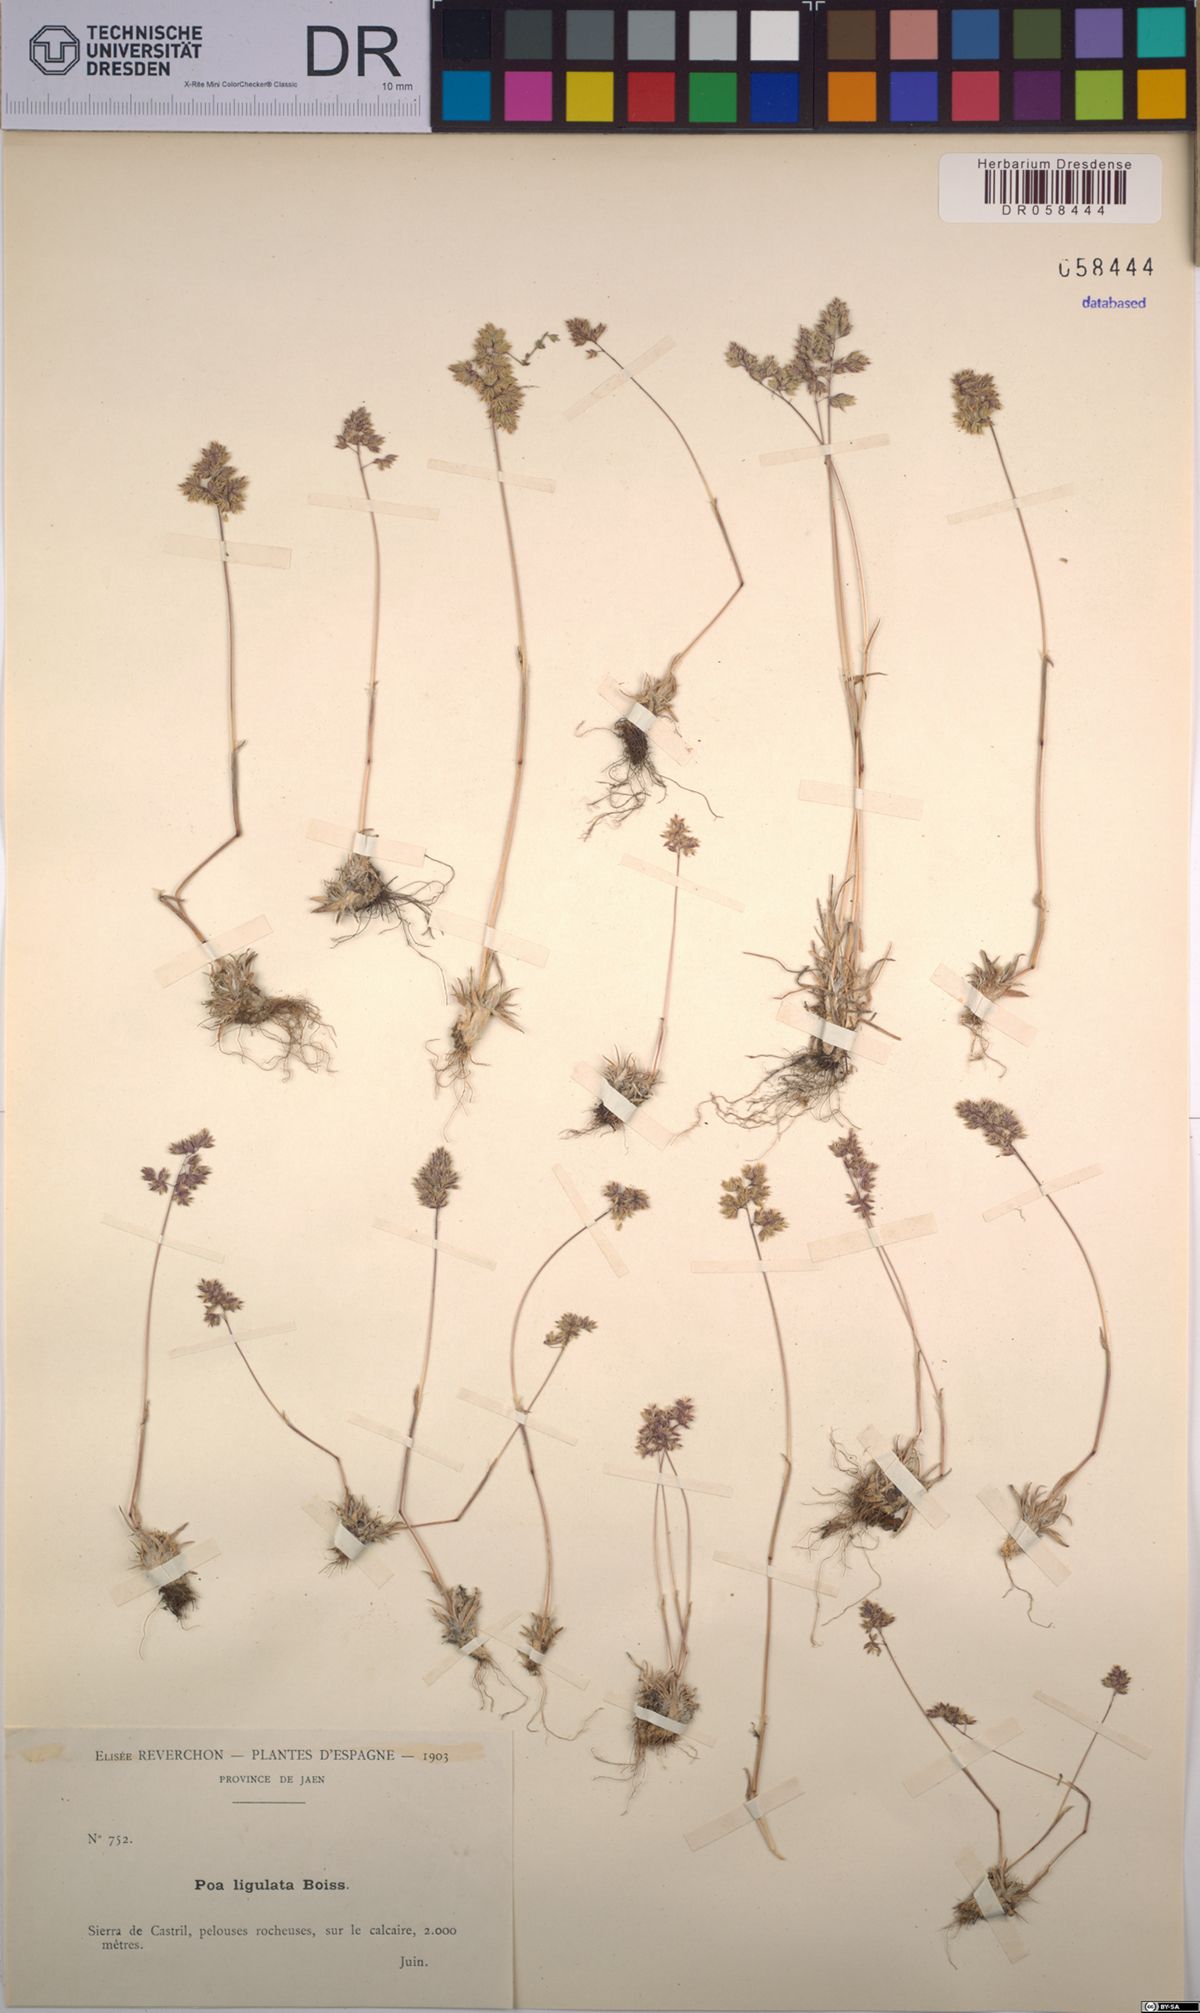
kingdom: Plantae
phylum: Tracheophyta
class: Liliopsida
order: Poales
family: Poaceae
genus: Poa
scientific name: Poa ligulata
